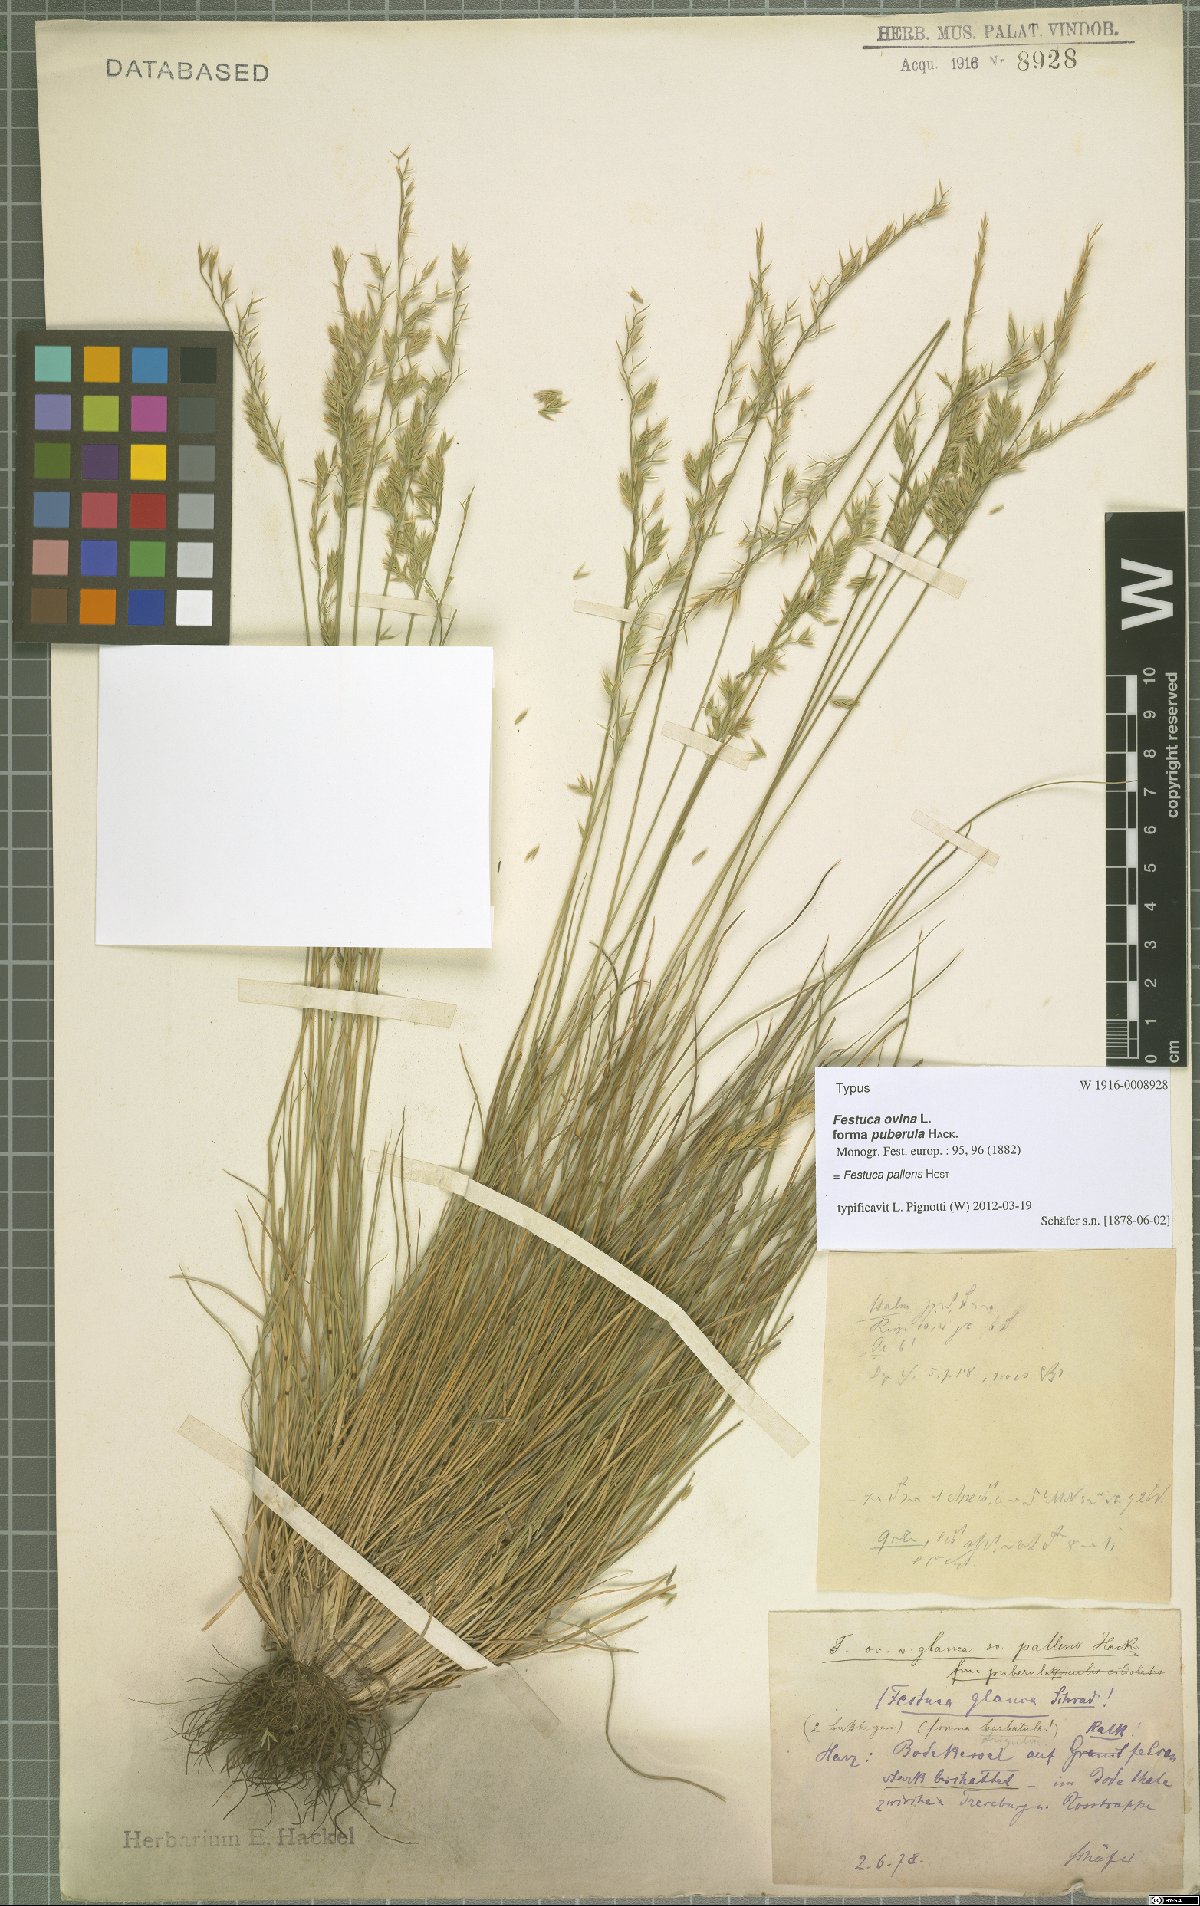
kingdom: Plantae
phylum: Tracheophyta
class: Liliopsida
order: Poales
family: Poaceae
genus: Festuca
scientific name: Festuca pallens
